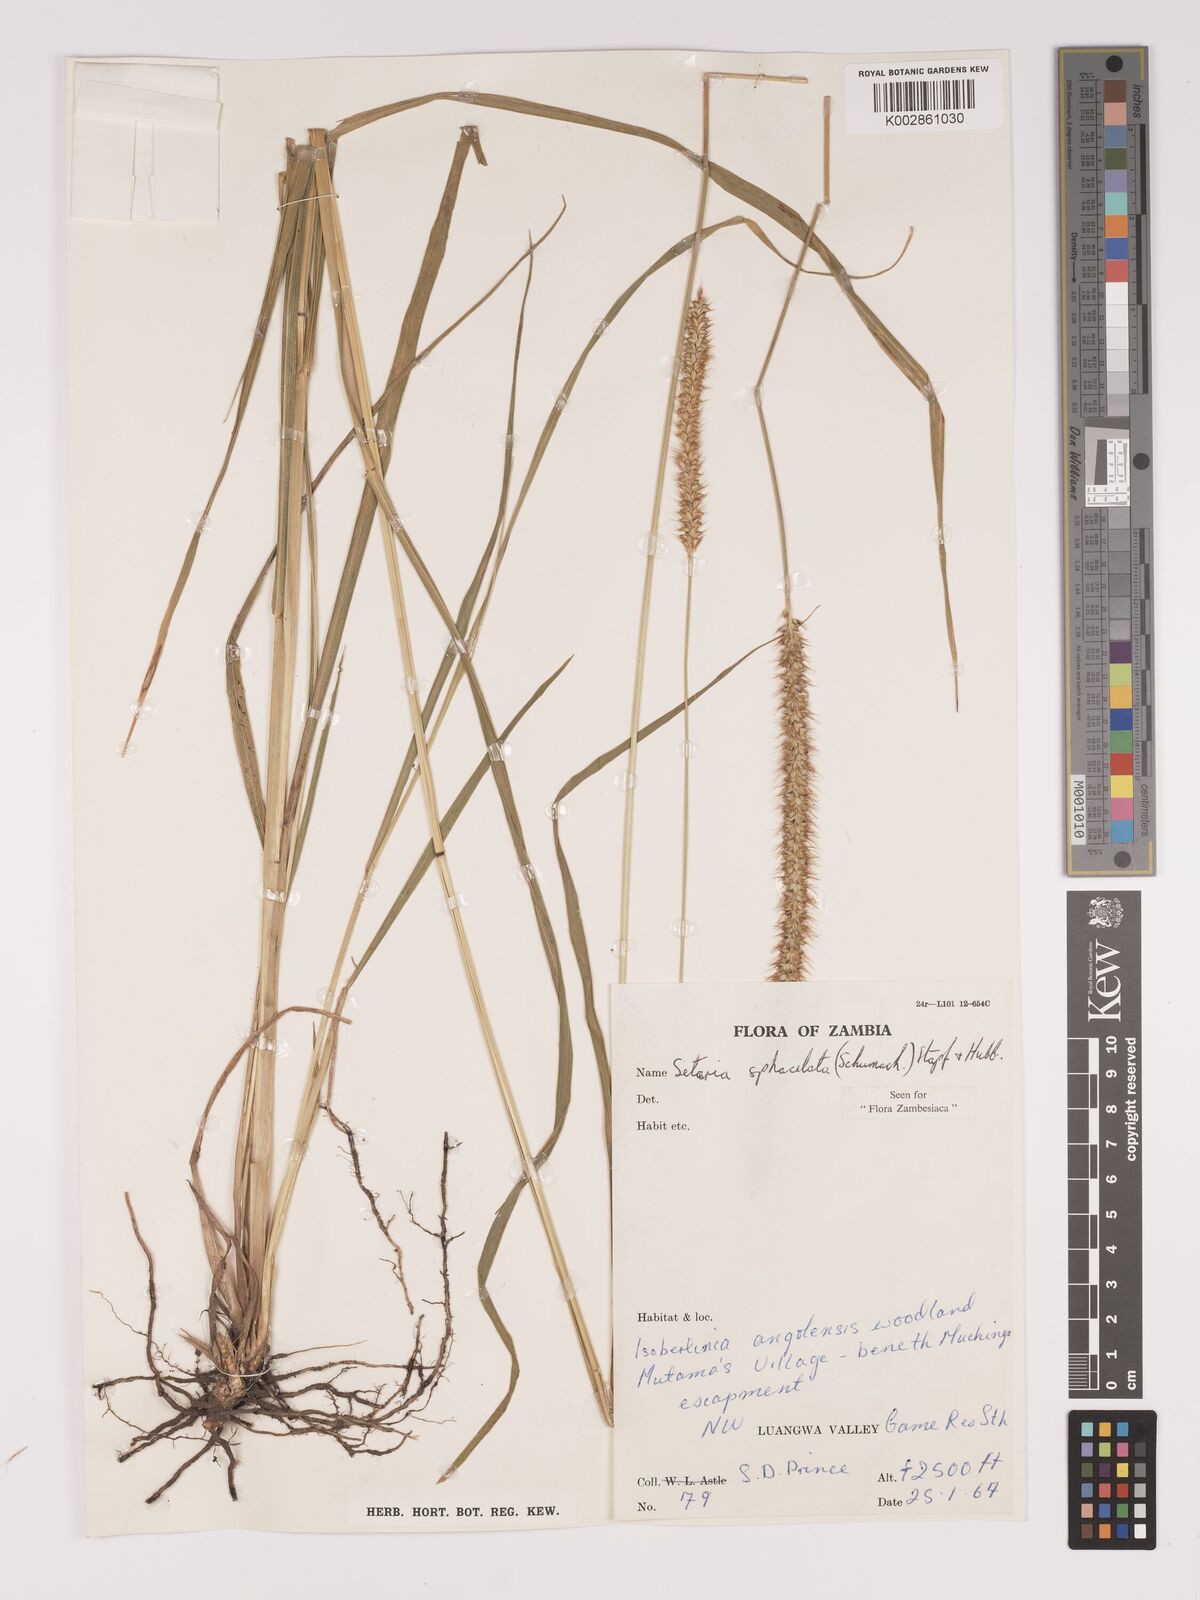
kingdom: Plantae
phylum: Tracheophyta
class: Liliopsida
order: Poales
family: Poaceae
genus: Setaria
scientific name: Setaria sphacelata
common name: African bristlegrass
